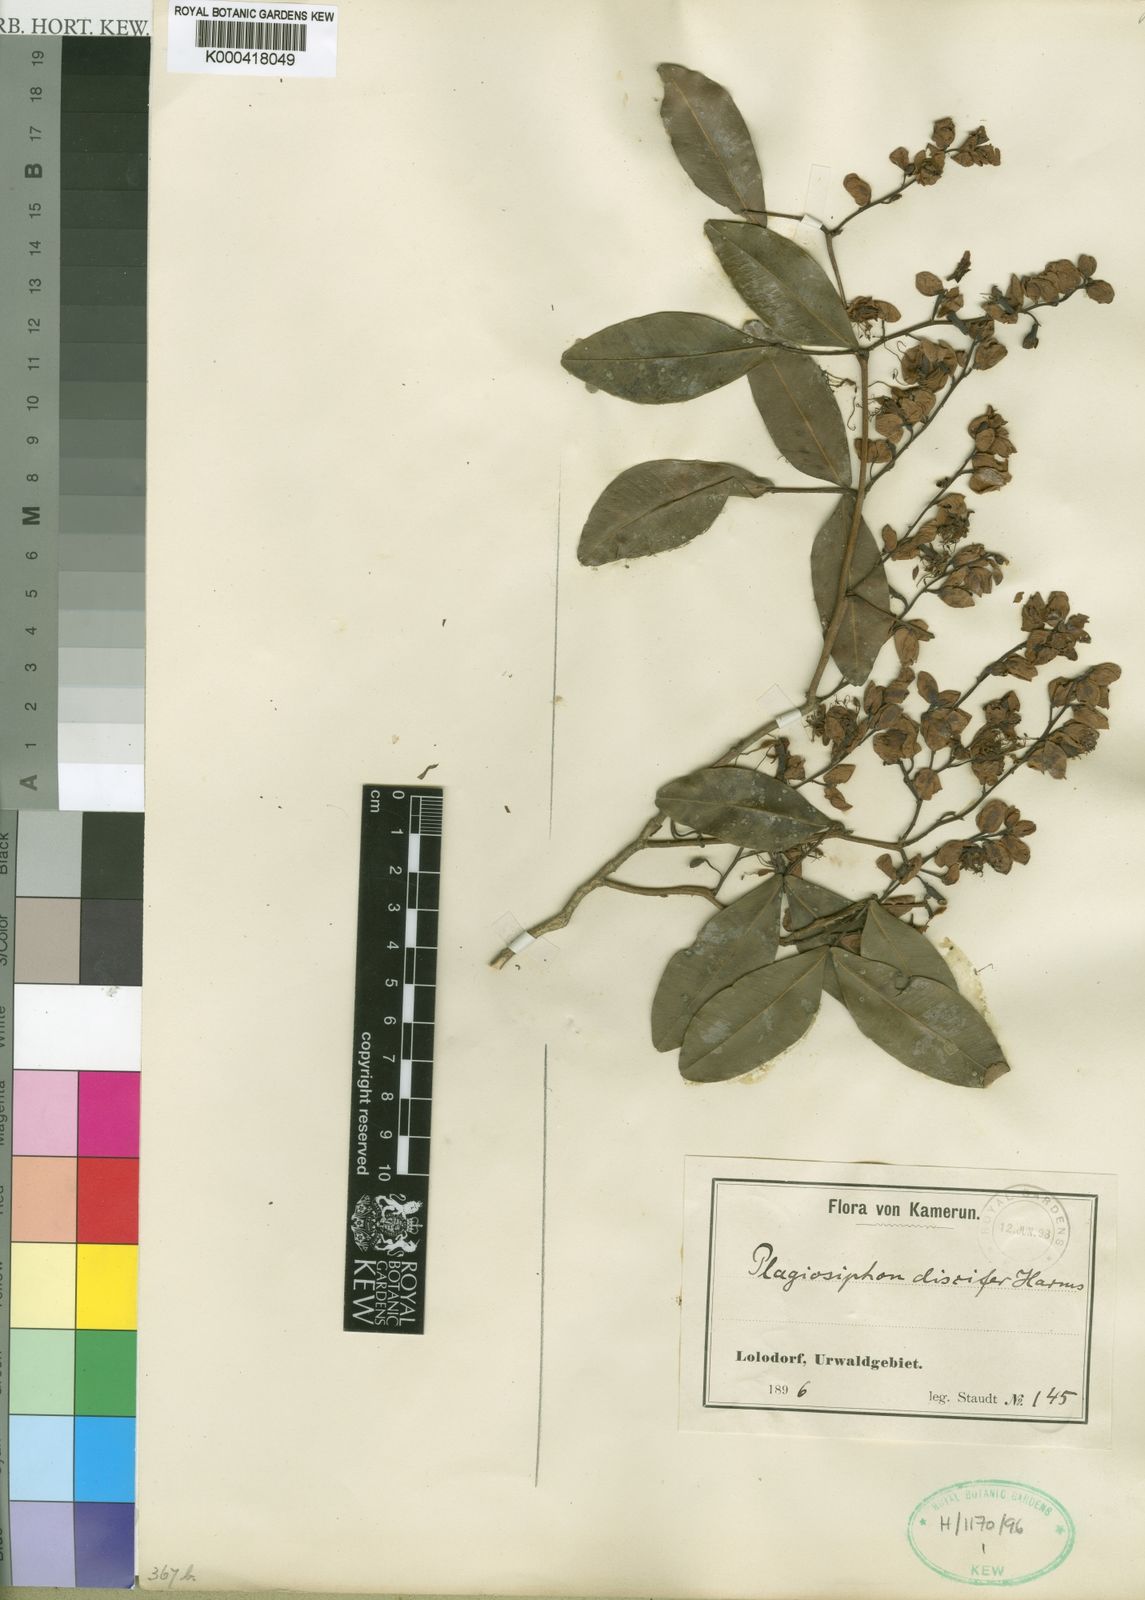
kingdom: Plantae
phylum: Tracheophyta
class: Magnoliopsida
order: Fabales
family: Fabaceae
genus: Plagiosiphon
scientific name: Plagiosiphon discifer
